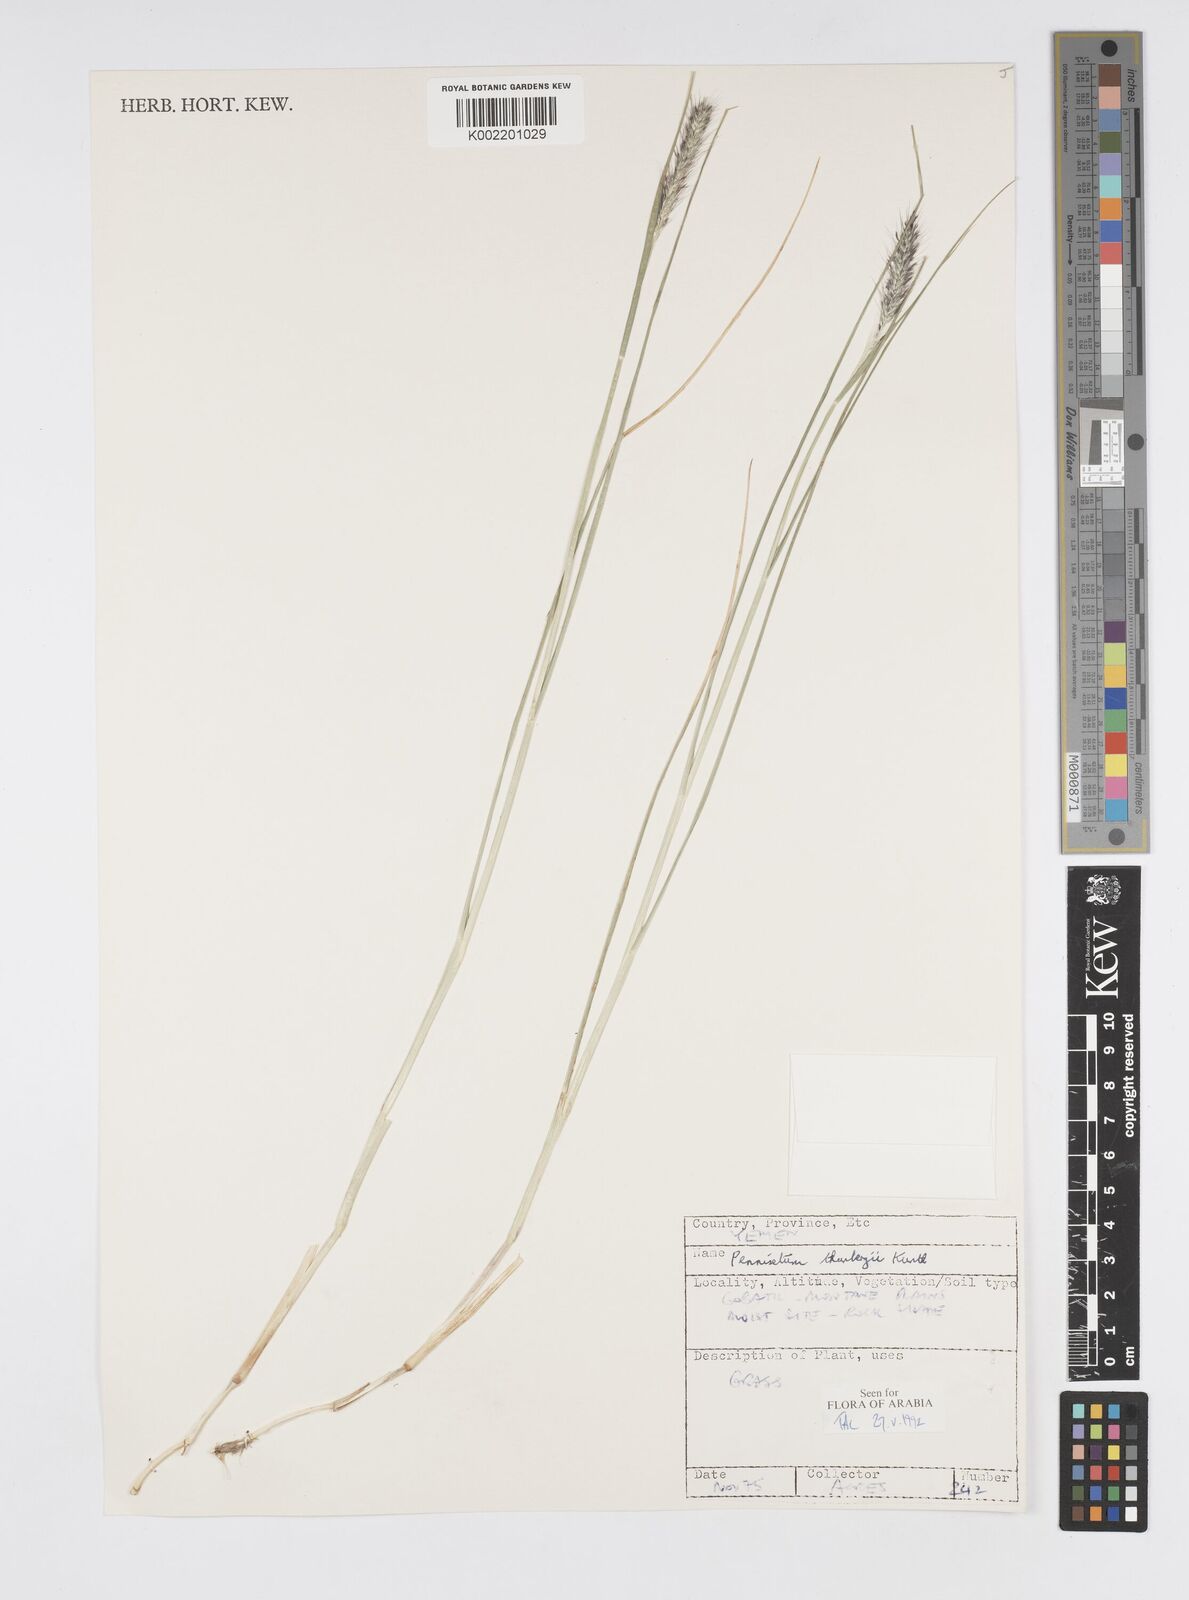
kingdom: Plantae
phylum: Tracheophyta
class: Liliopsida
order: Poales
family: Poaceae
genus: Cenchrus
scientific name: Cenchrus geniculatus
